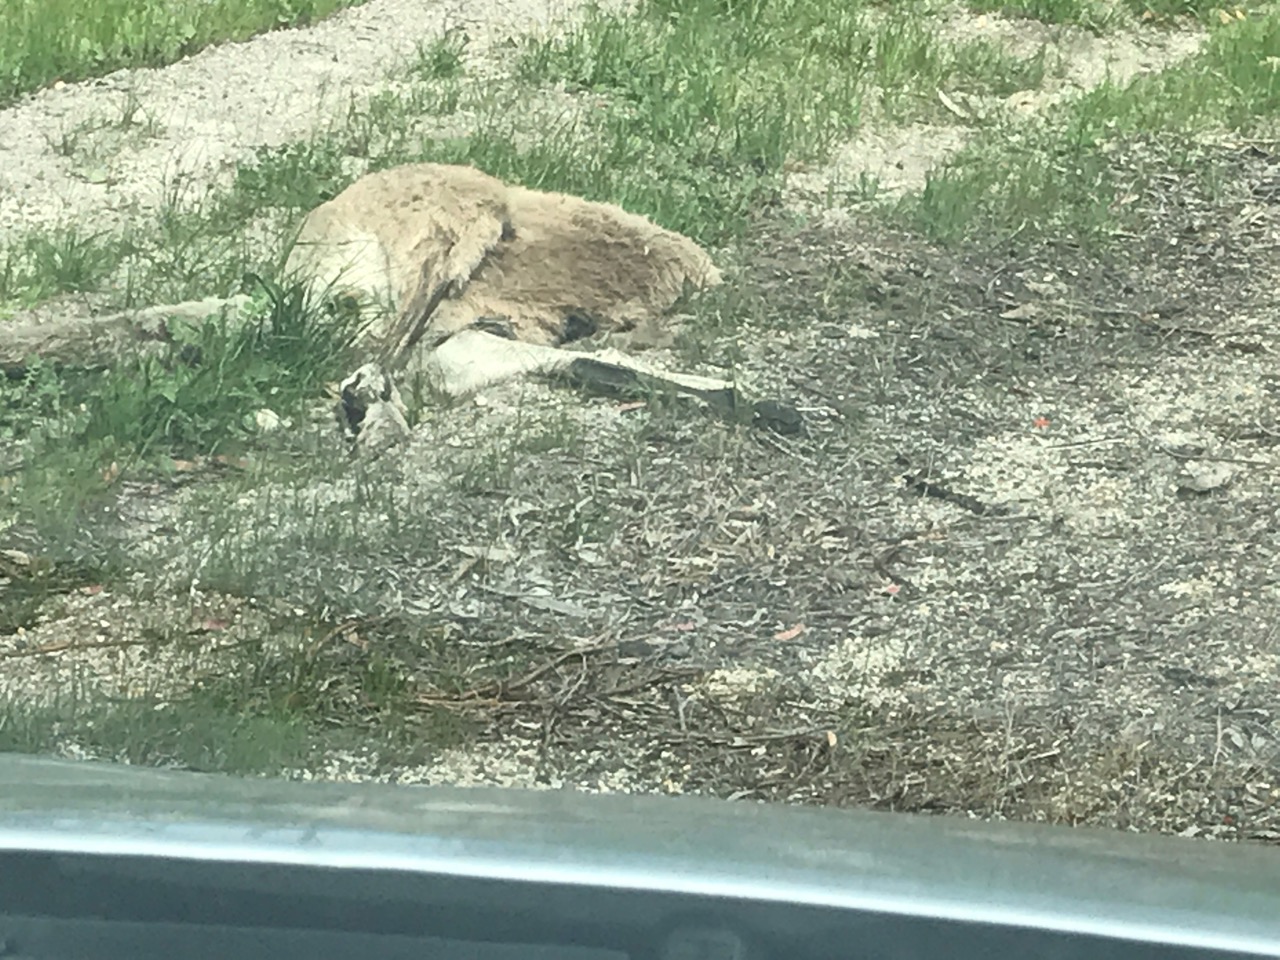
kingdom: Animalia
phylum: Chordata
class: Mammalia
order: Diprotodontia
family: Macropodidae
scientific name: Macropodidae
